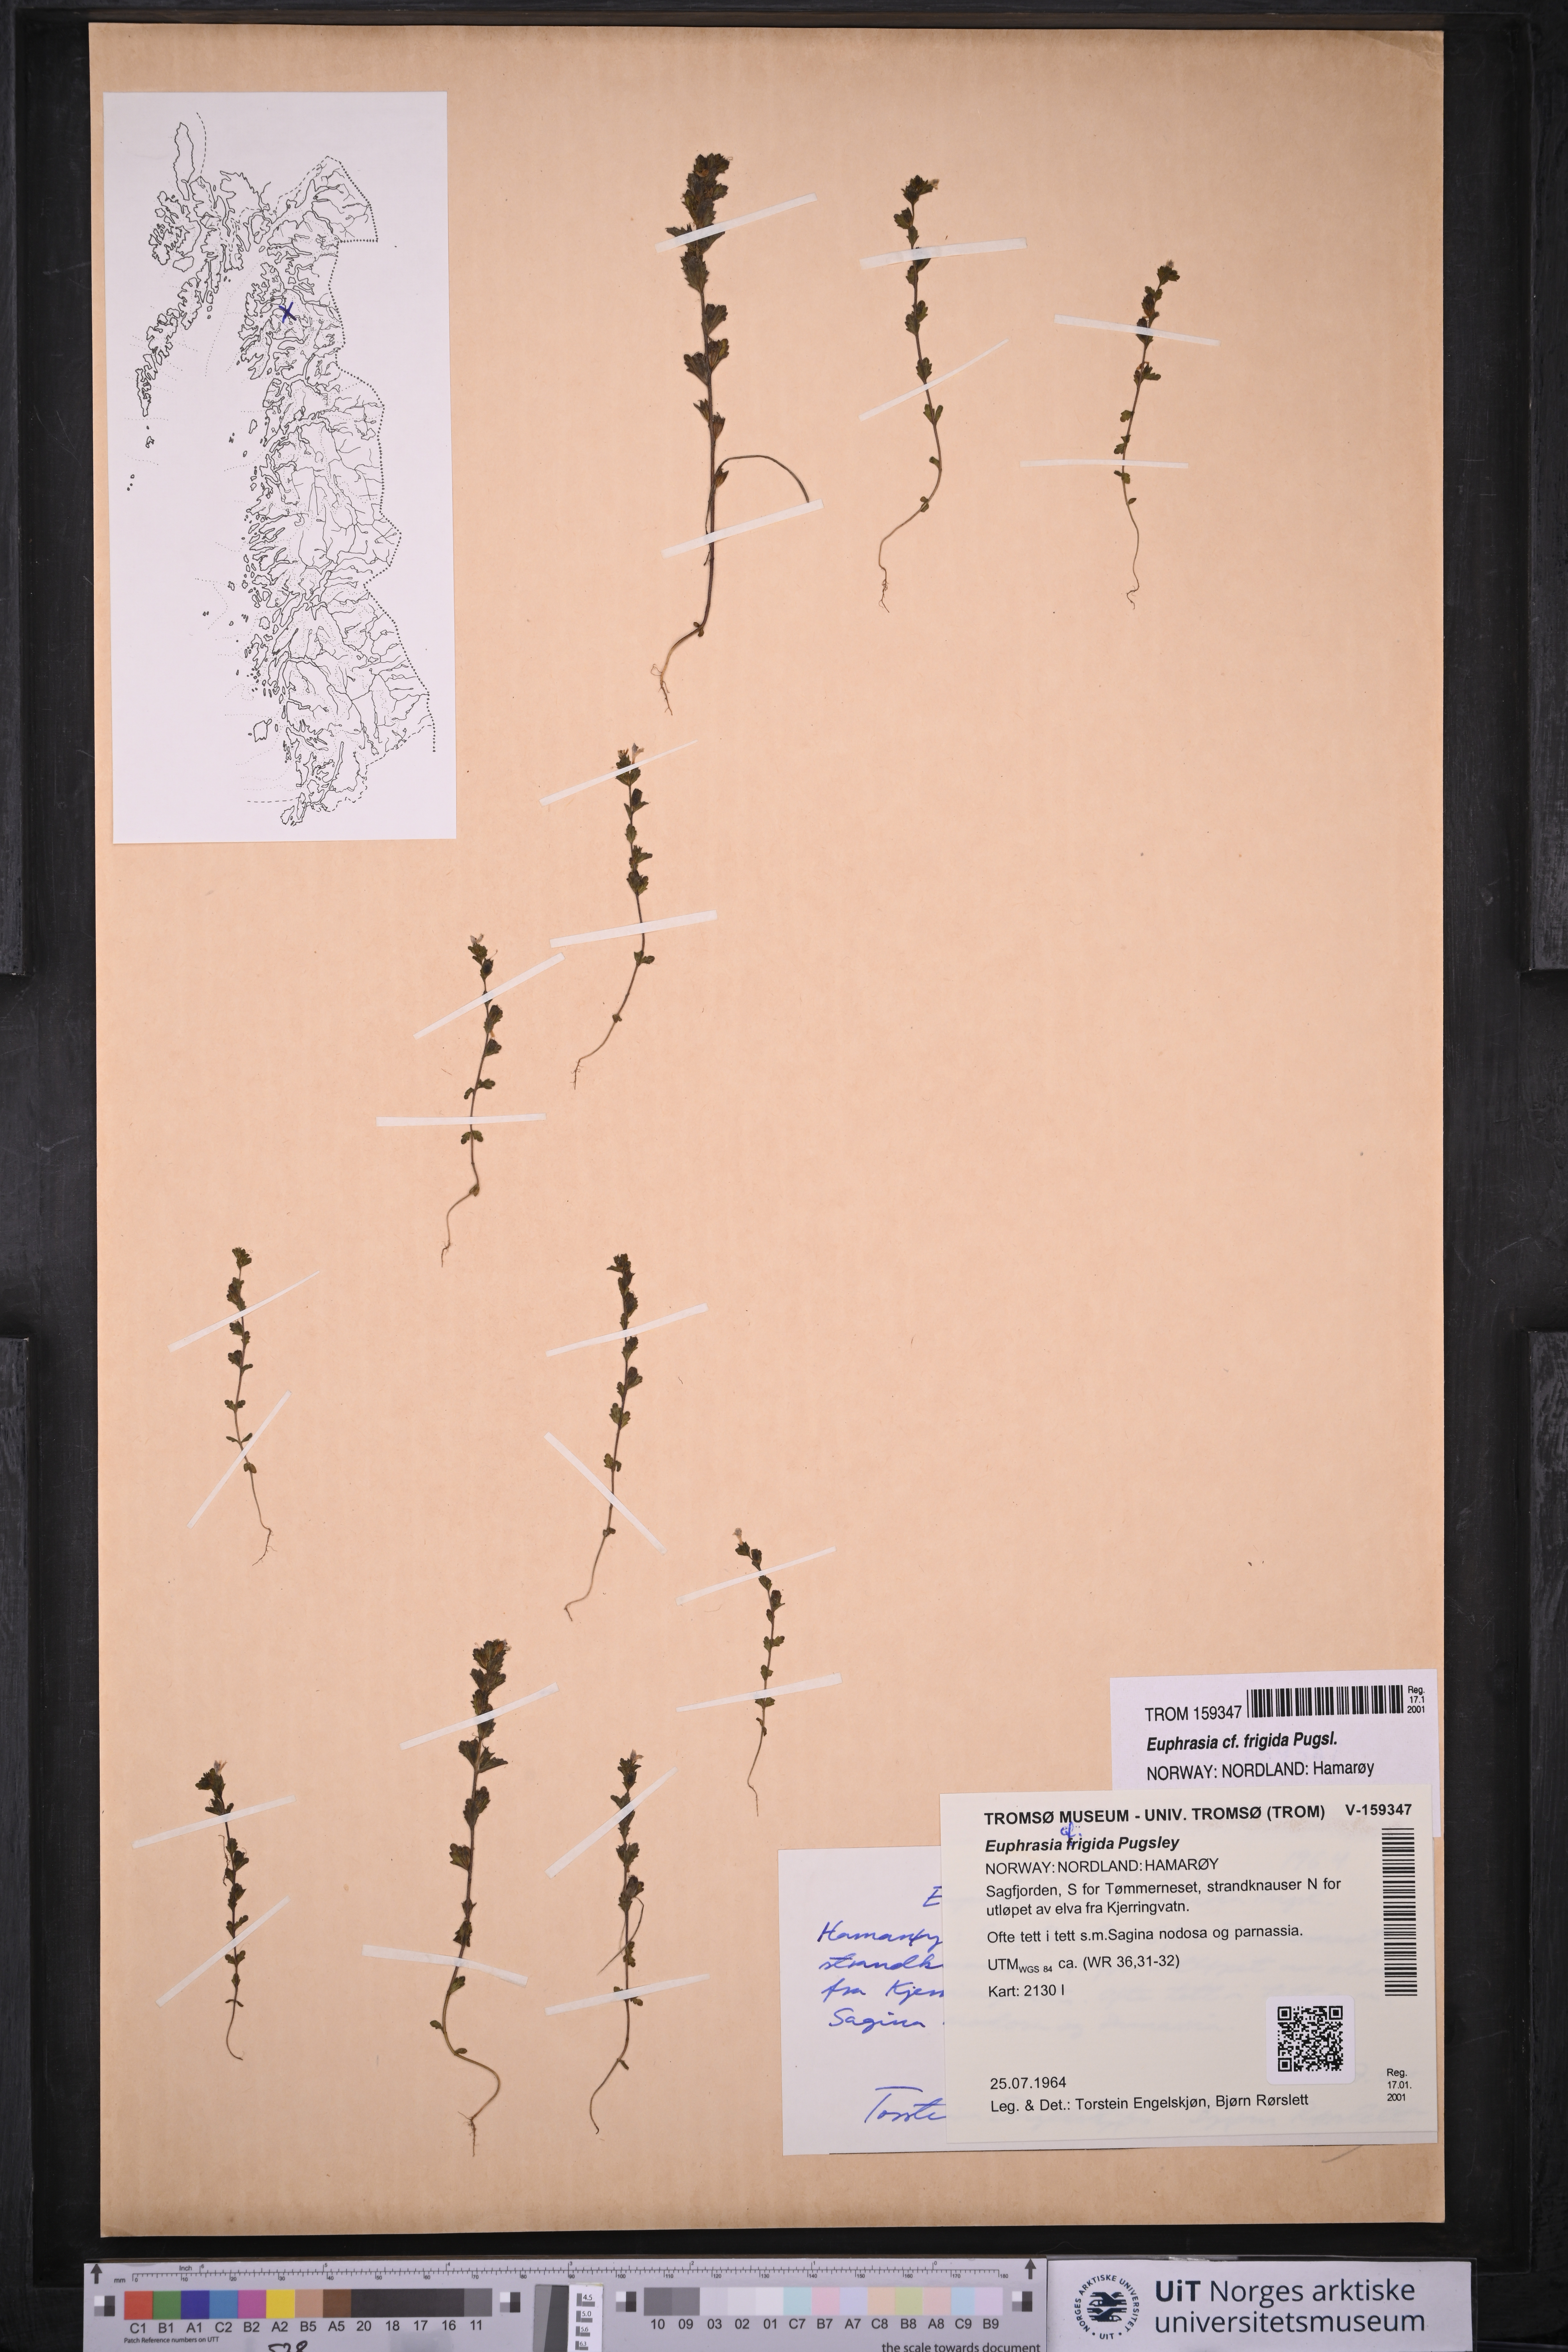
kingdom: Plantae
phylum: Tracheophyta
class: Magnoliopsida
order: Lamiales
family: Orobanchaceae
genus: Euphrasia
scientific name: Euphrasia frigida
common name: An eyebright
